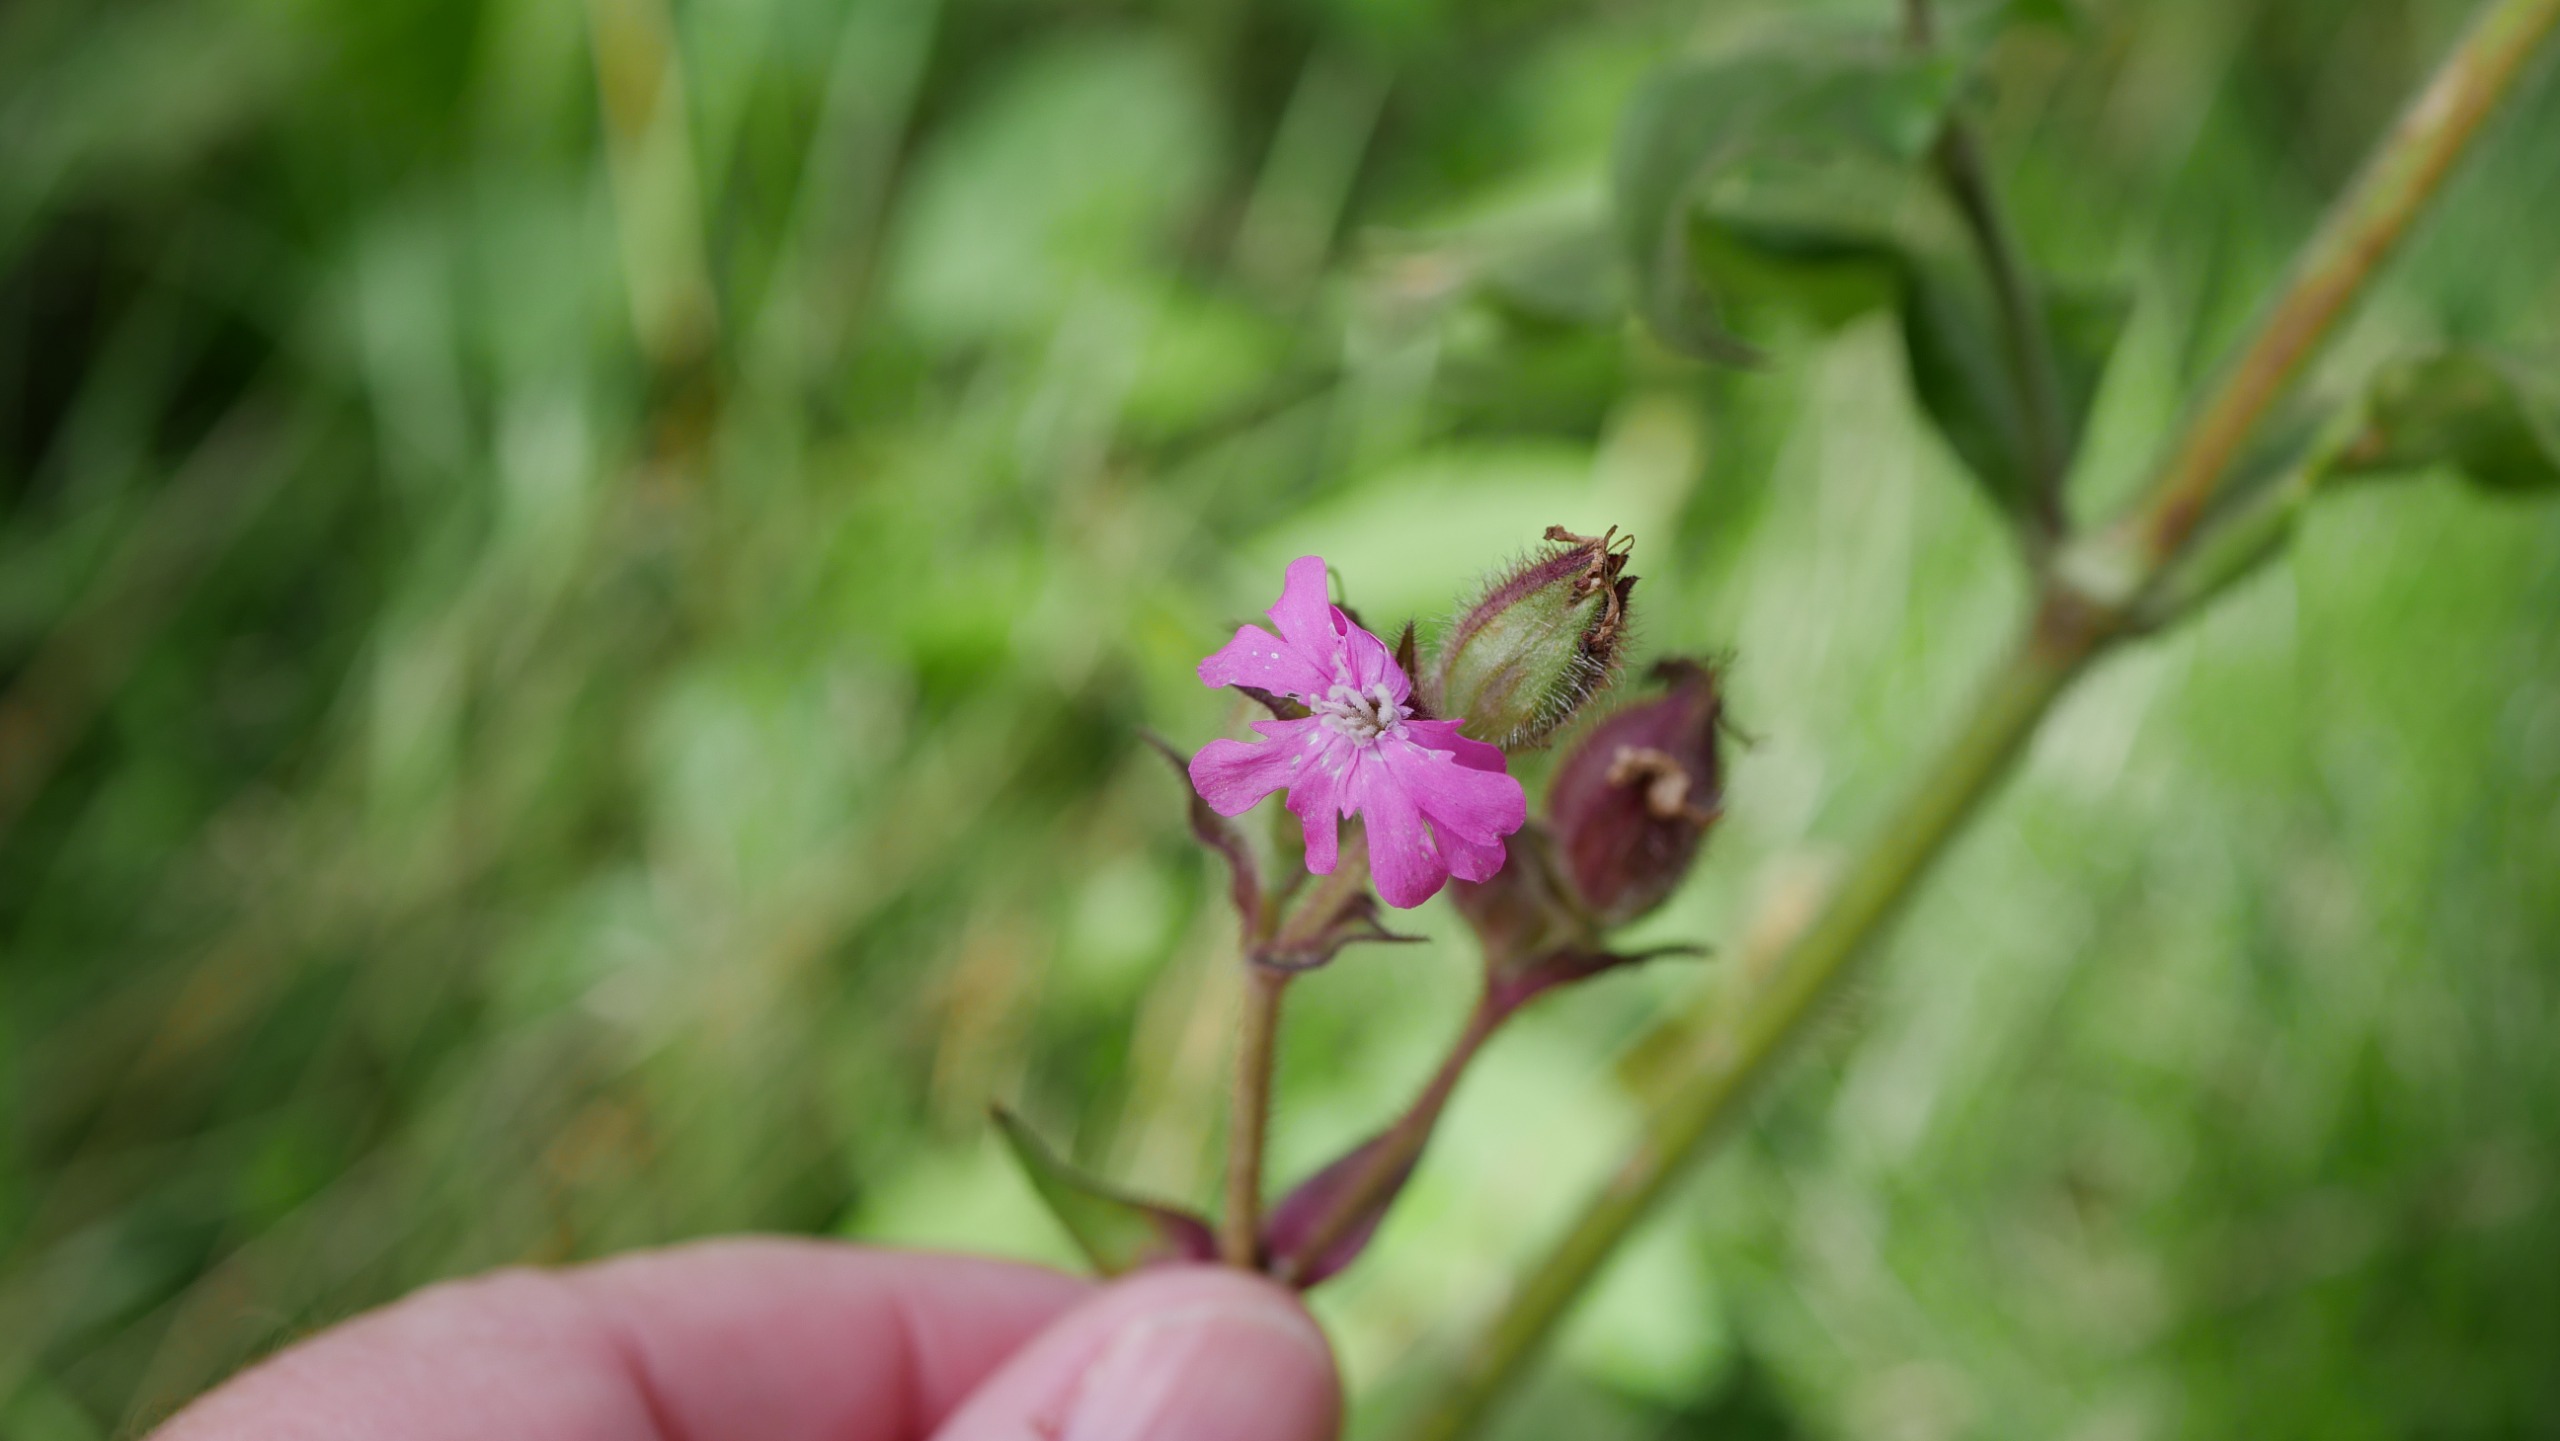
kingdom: Plantae
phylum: Tracheophyta
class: Magnoliopsida
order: Caryophyllales
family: Caryophyllaceae
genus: Silene
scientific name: Silene dioica
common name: Dagpragtstjerne
